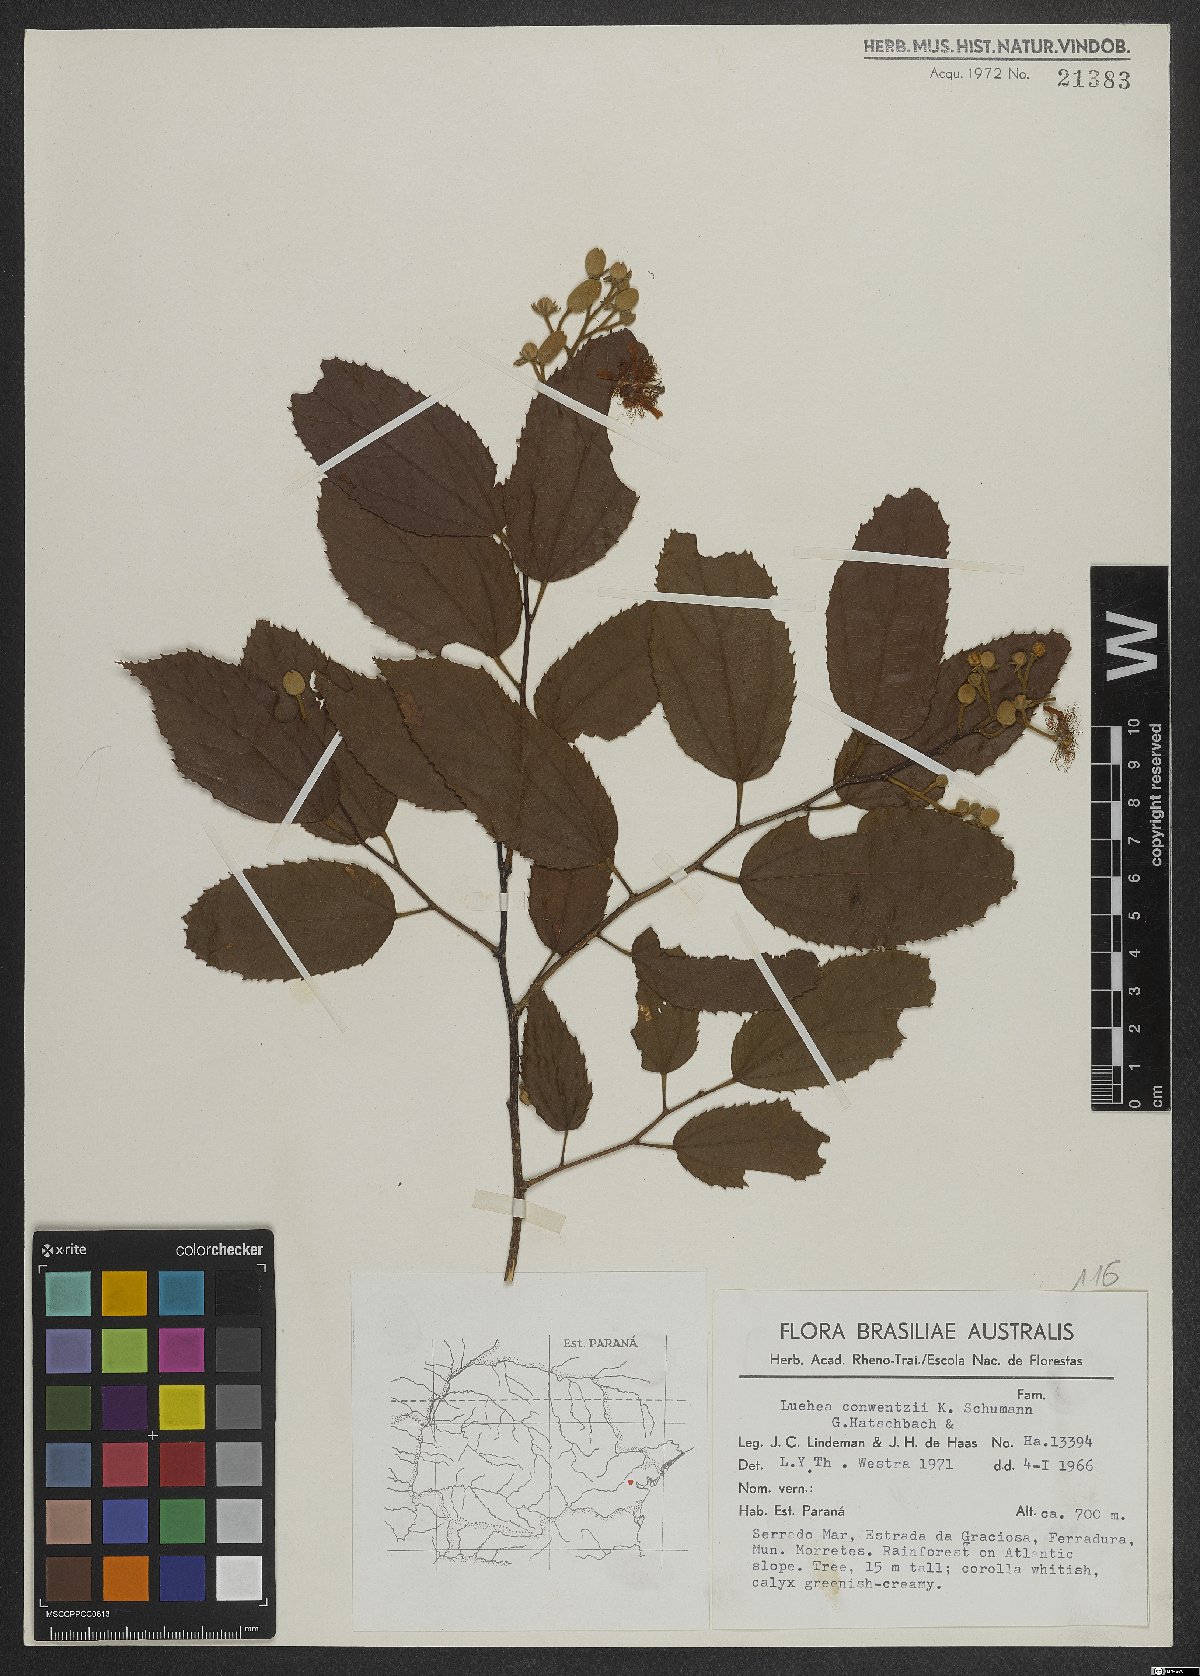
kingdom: Plantae
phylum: Tracheophyta
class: Magnoliopsida
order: Malvales
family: Malvaceae
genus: Luehea
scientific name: Luehea conwentzii
